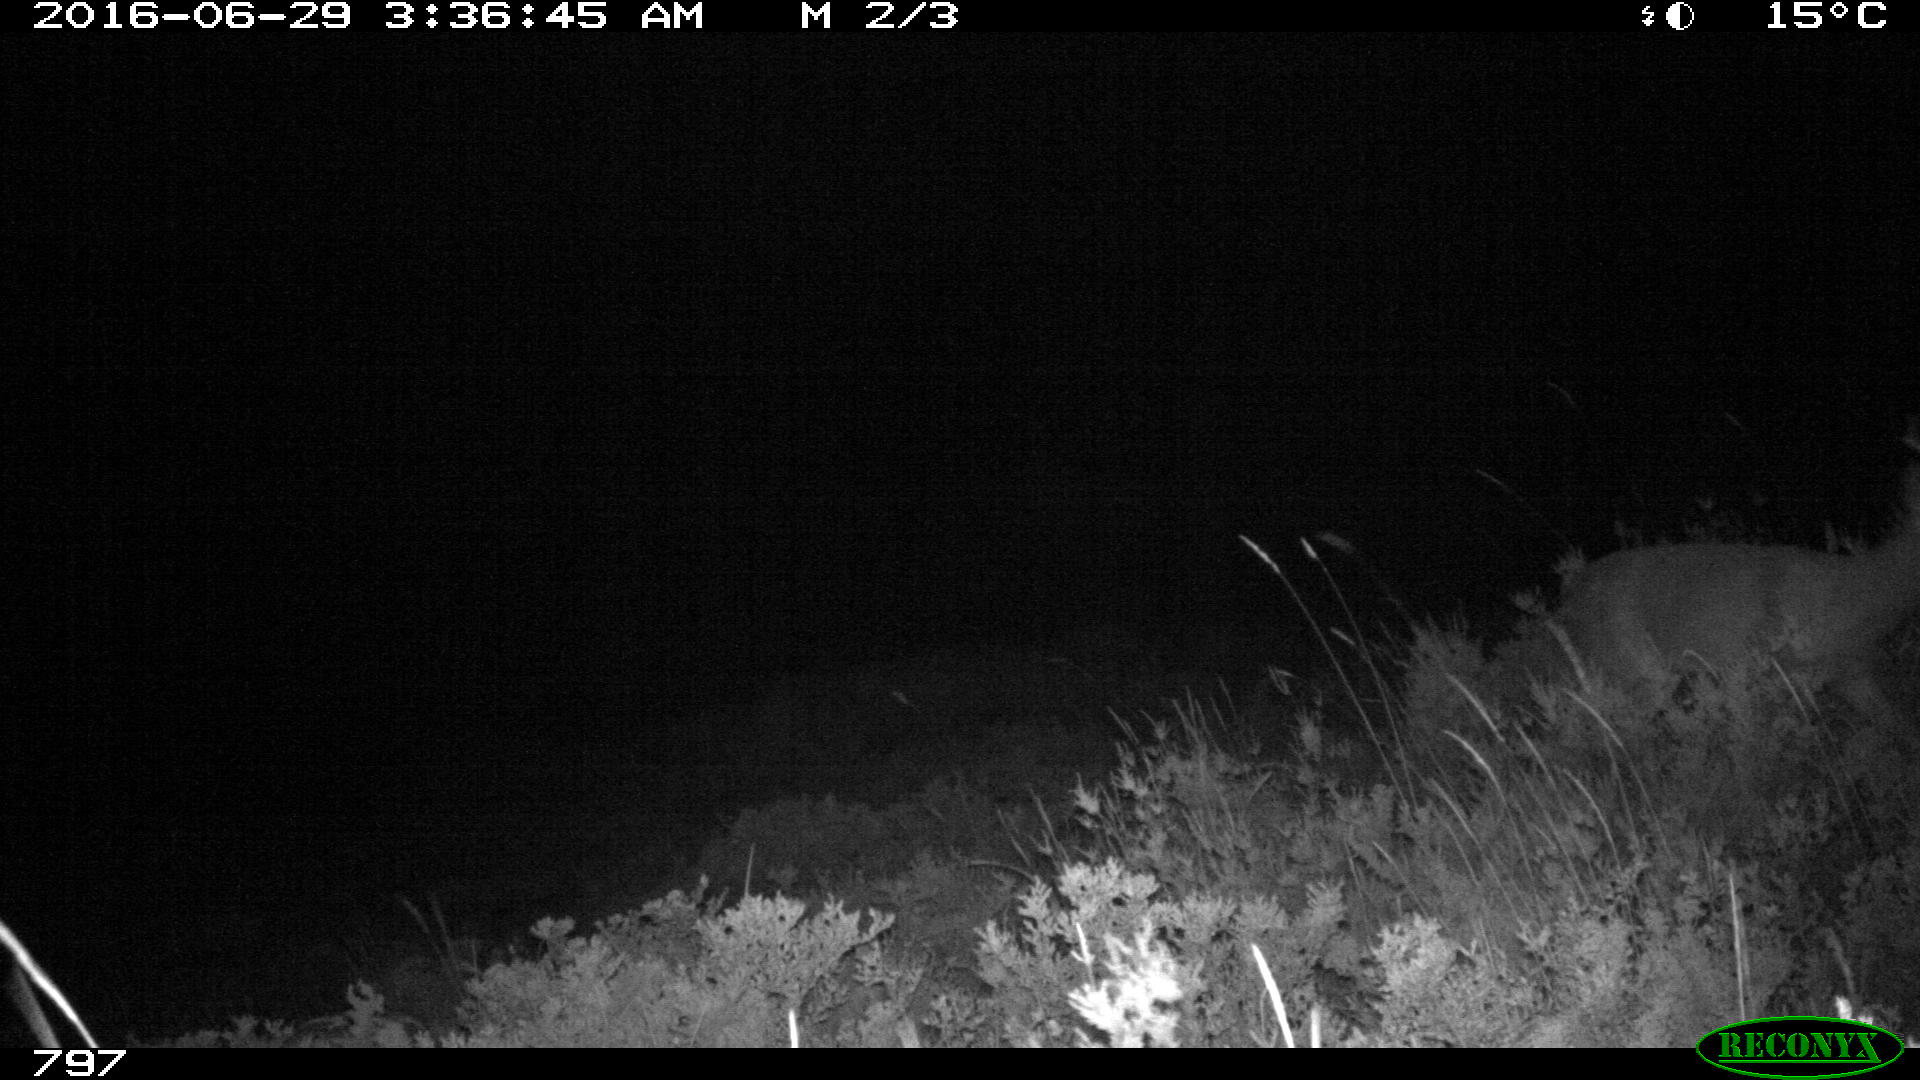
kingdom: Animalia
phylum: Chordata
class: Mammalia
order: Artiodactyla
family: Cervidae
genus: Capreolus
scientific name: Capreolus capreolus
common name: Western roe deer
